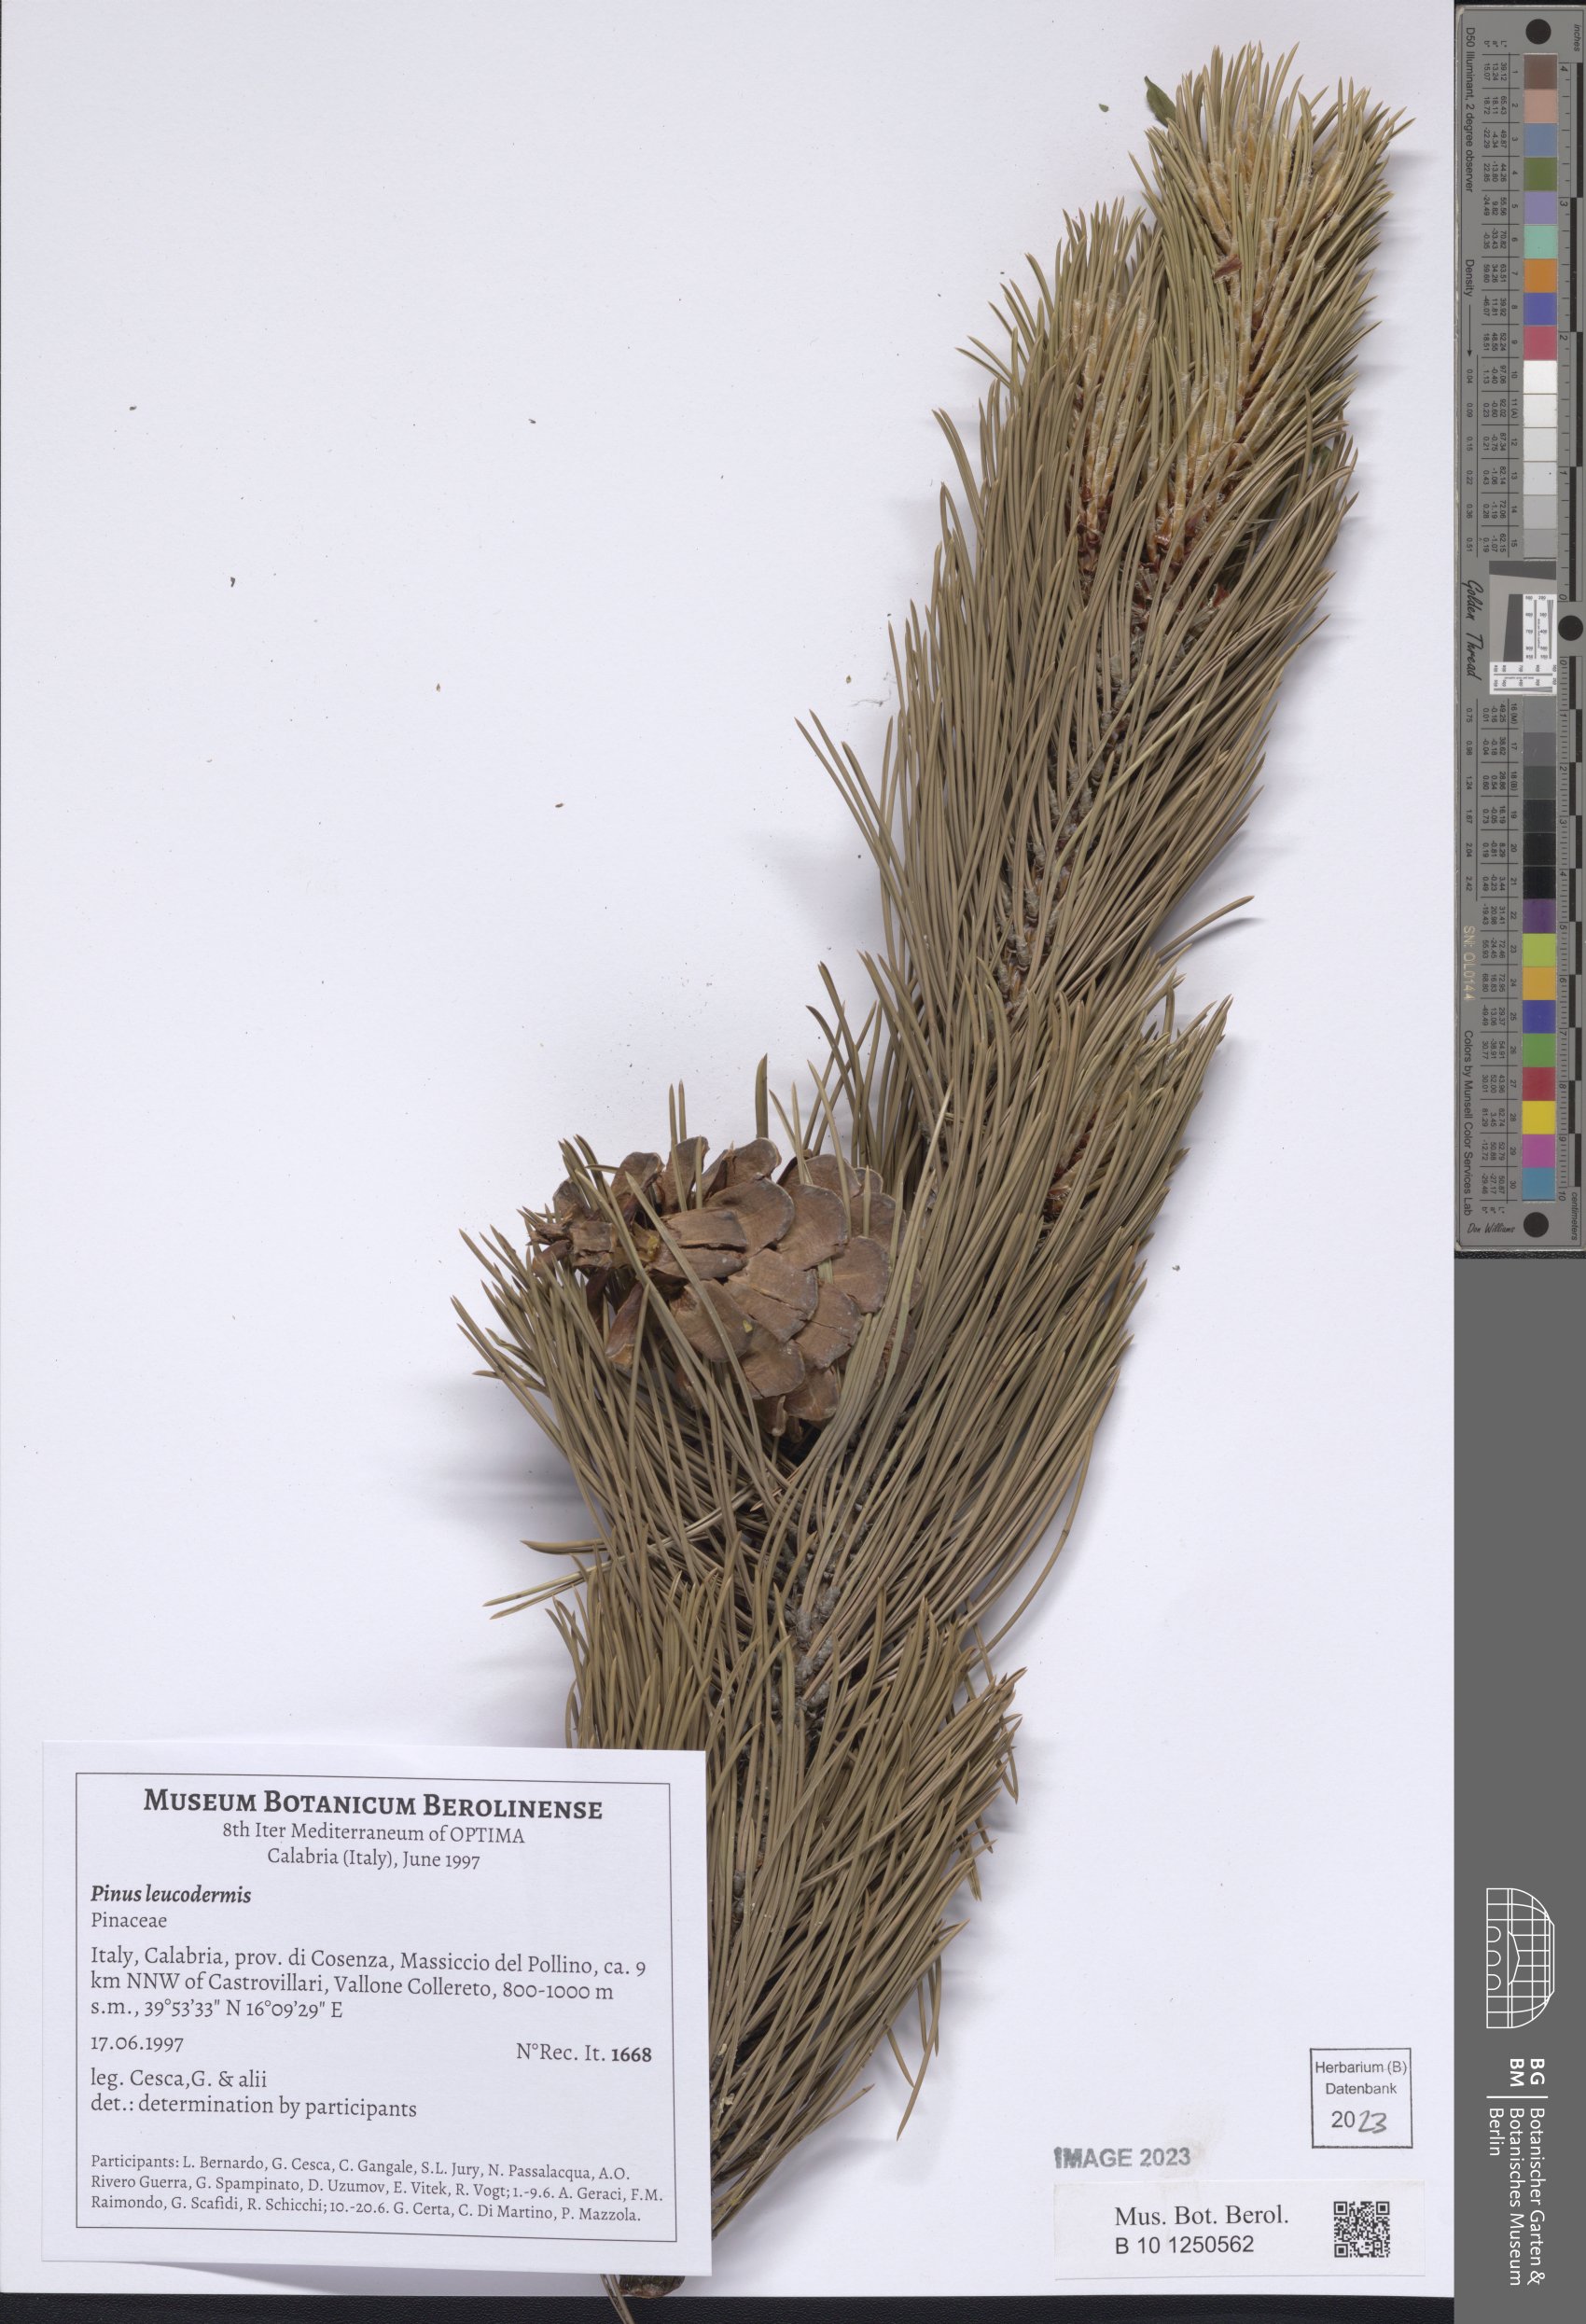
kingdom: Plantae
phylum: Tracheophyta
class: Pinopsida
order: Pinales
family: Pinaceae
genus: Pinus
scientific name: Pinus heldreichii
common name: Bosnian pine
